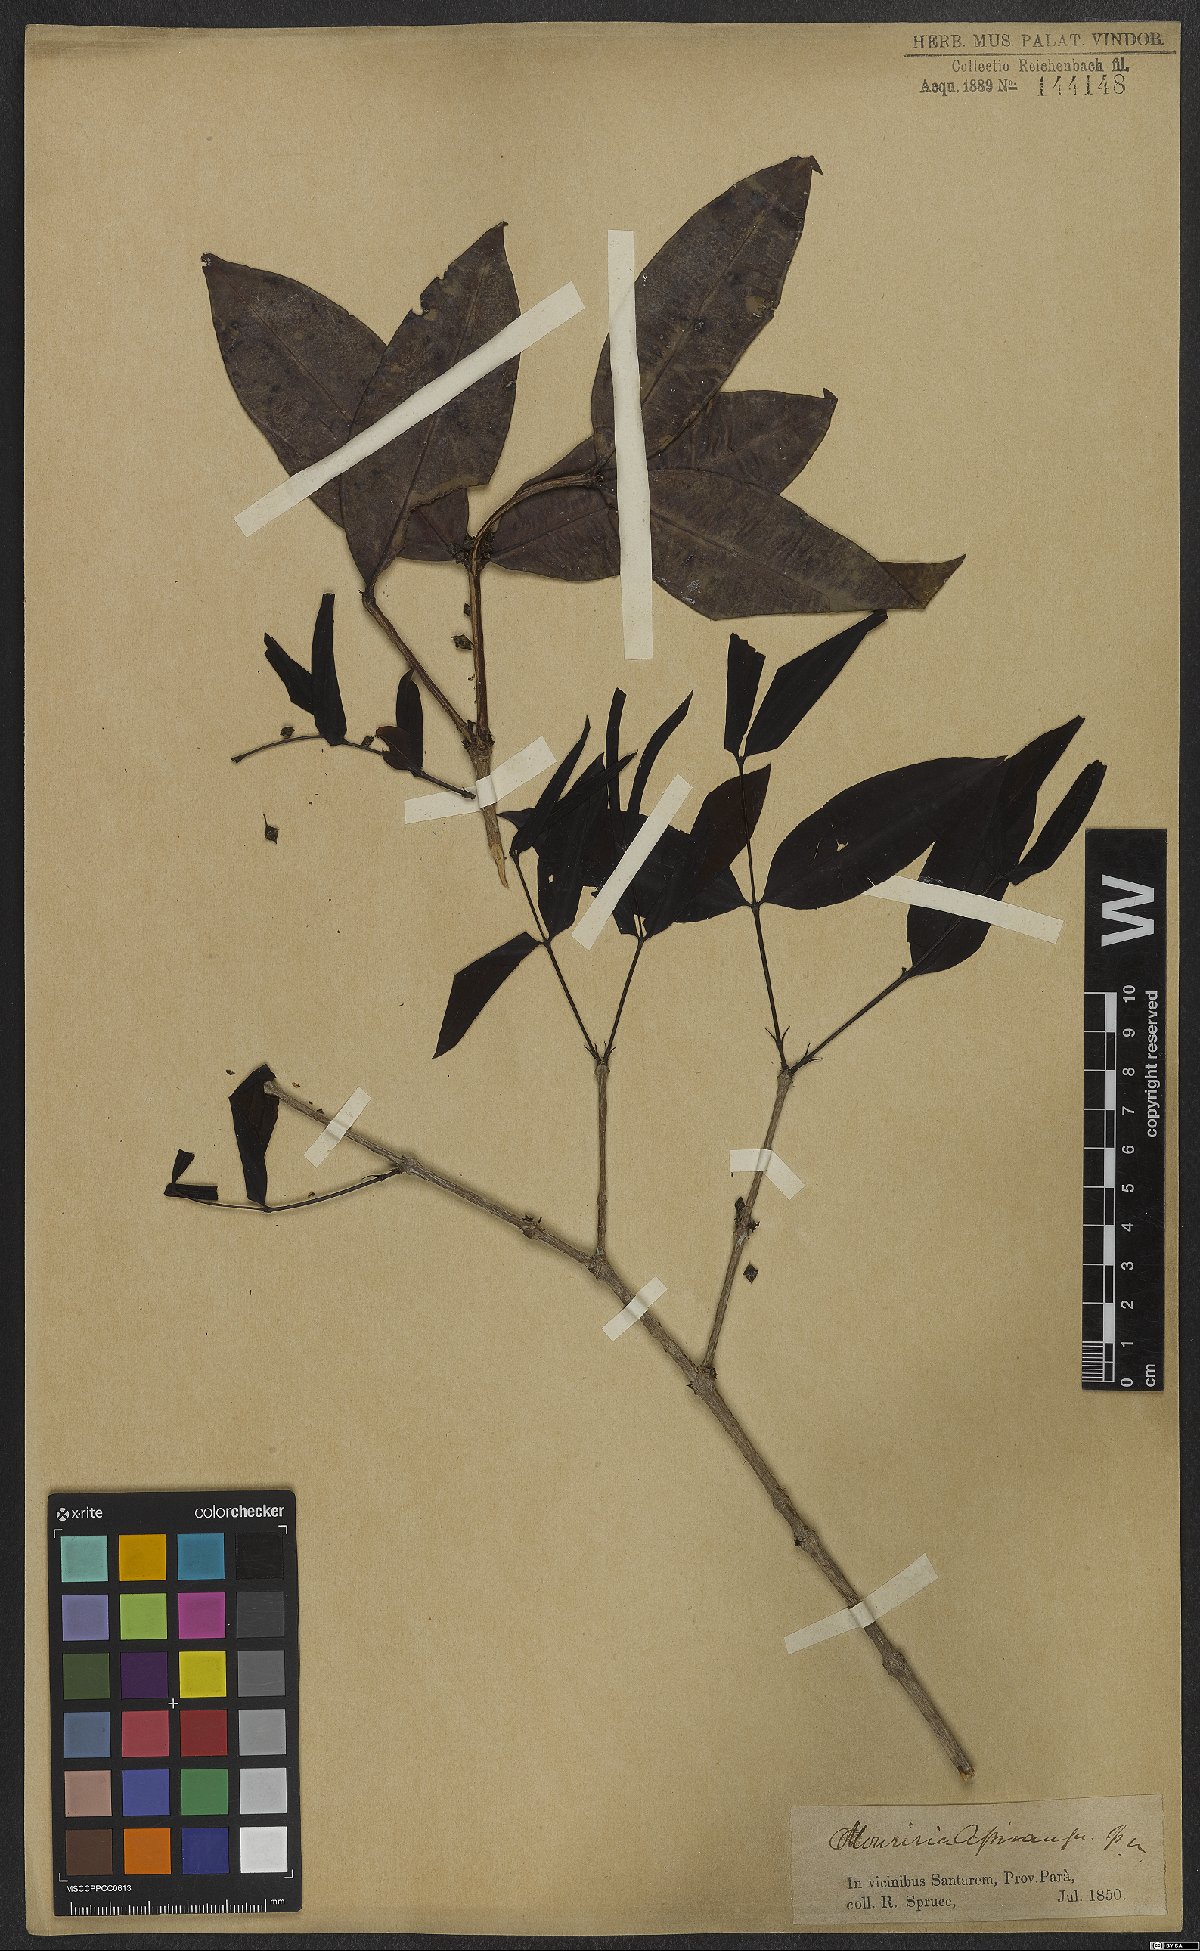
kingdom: Plantae
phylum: Tracheophyta
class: Magnoliopsida
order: Myrtales
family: Melastomataceae
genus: Mouriri
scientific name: Mouriri apiranga
